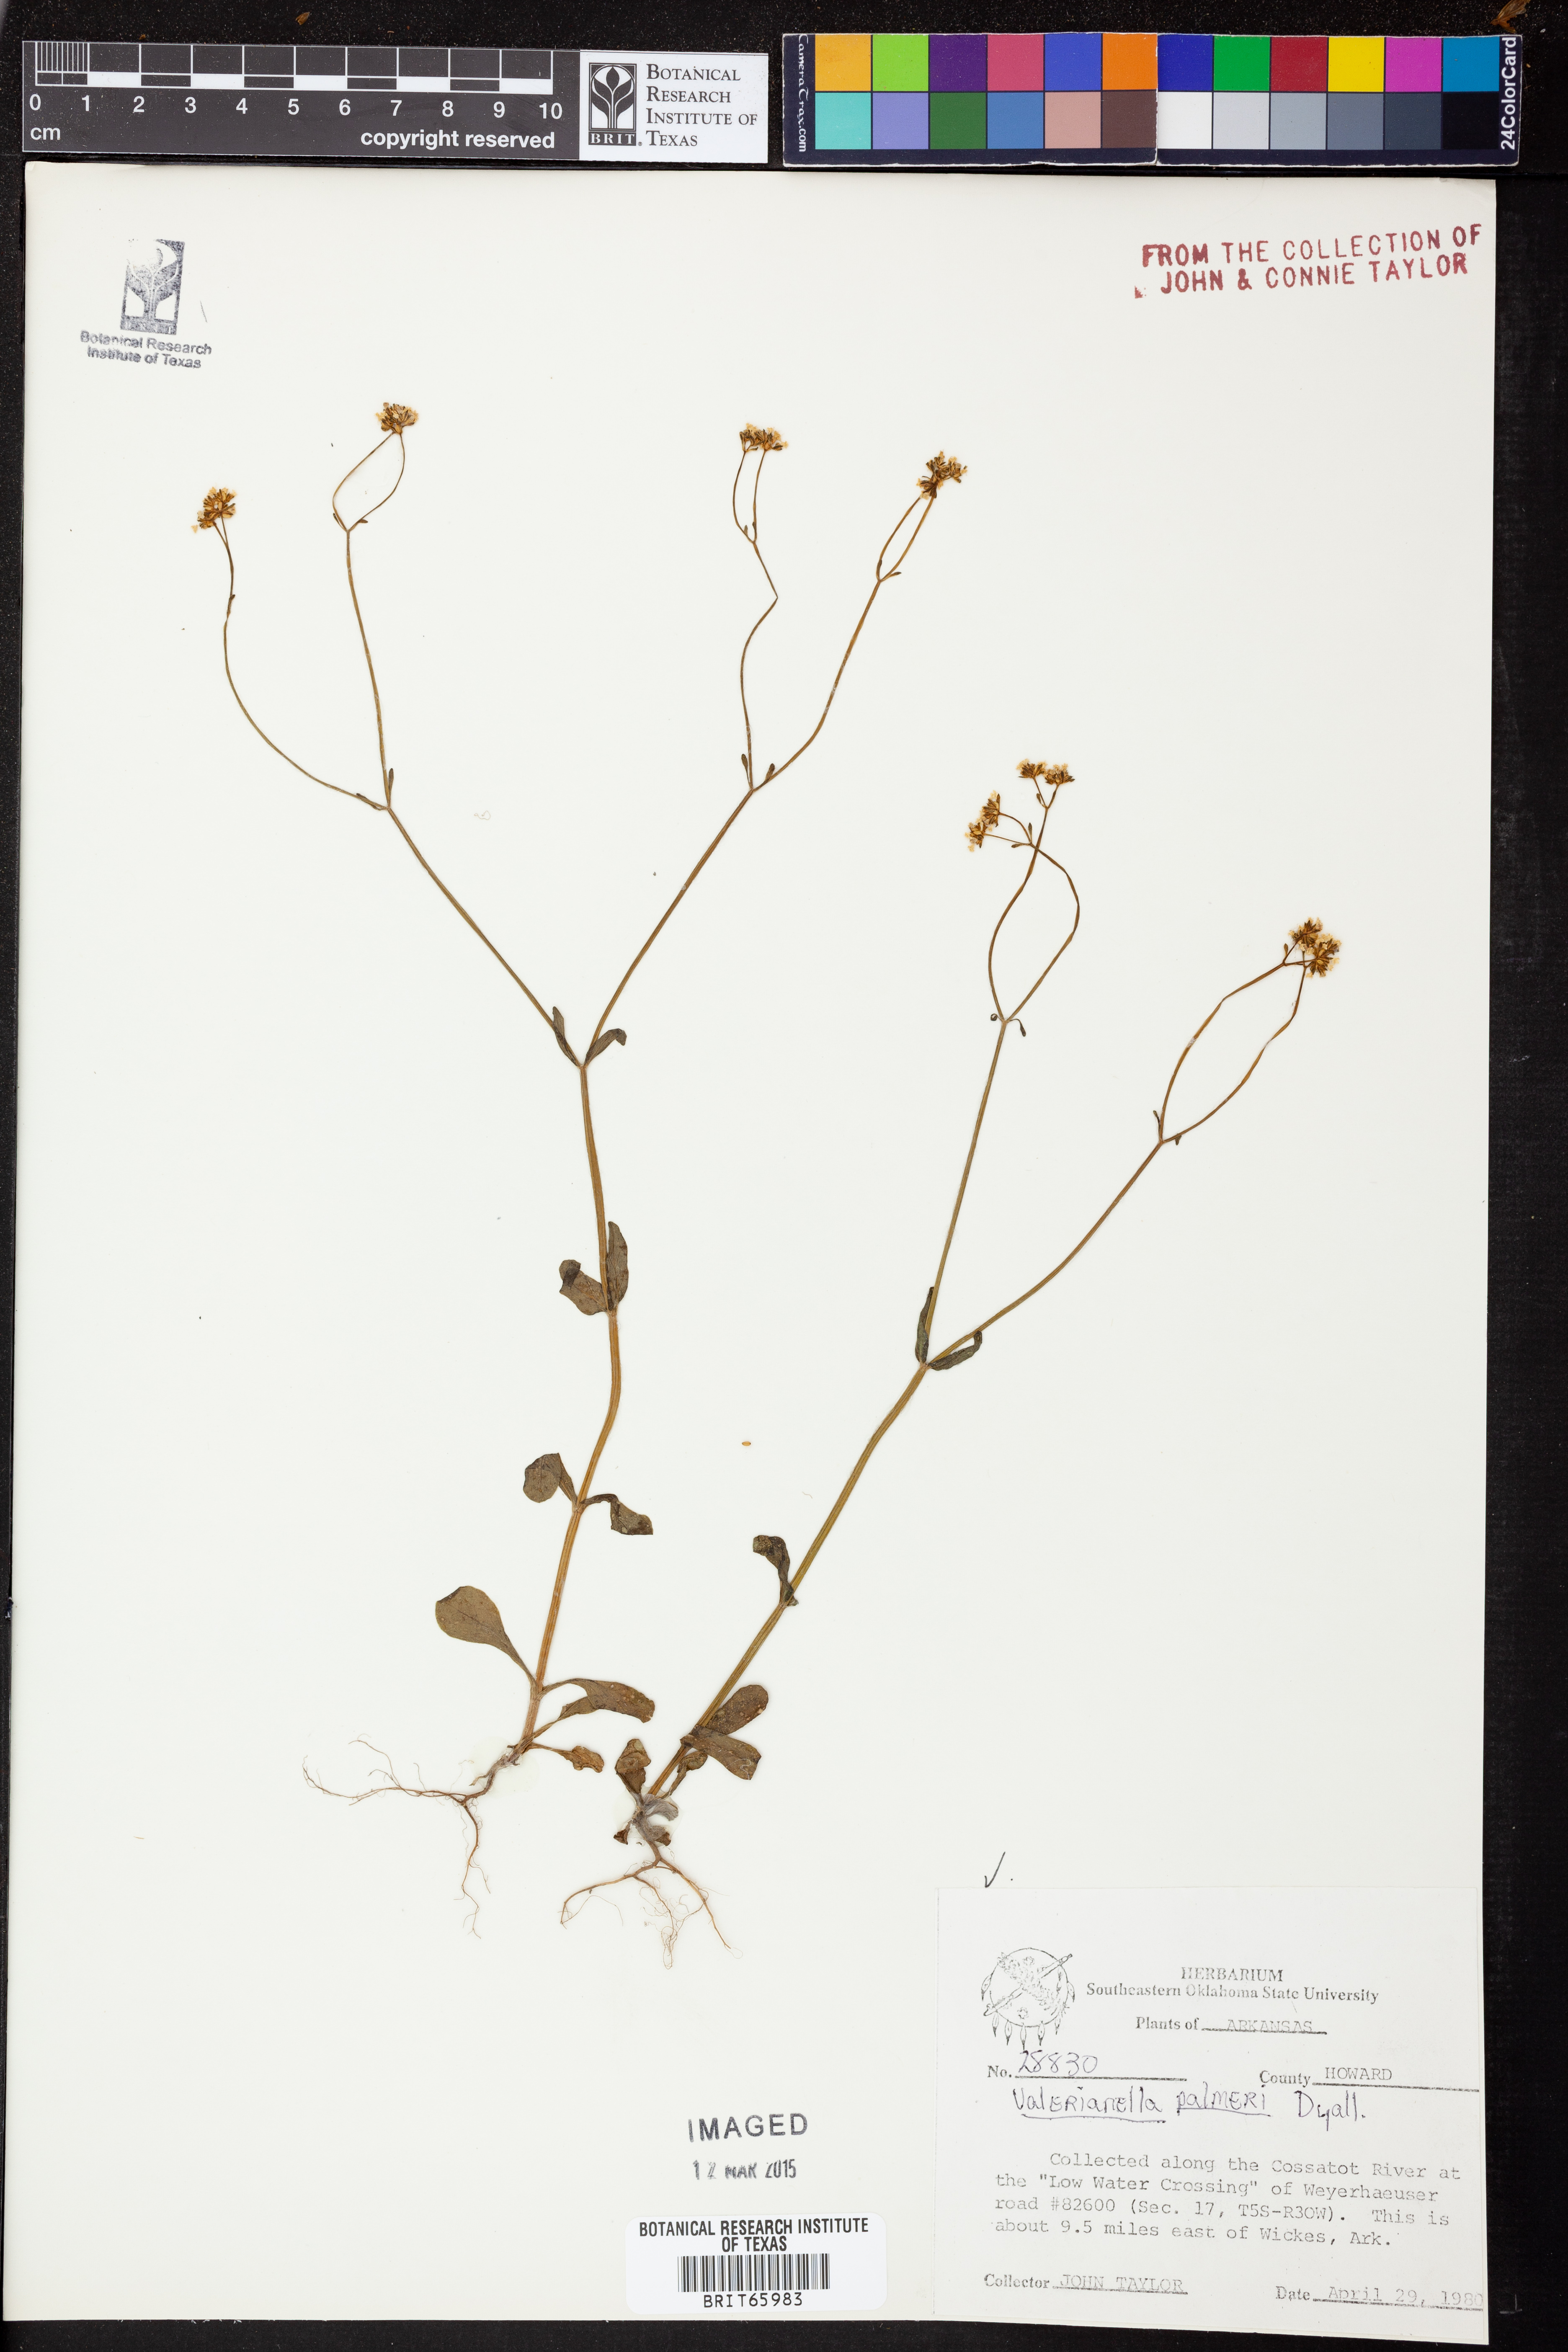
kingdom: Plantae
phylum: Tracheophyta
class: Magnoliopsida
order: Dipsacales
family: Caprifoliaceae
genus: Valerianella
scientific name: Valerianella palmeri
